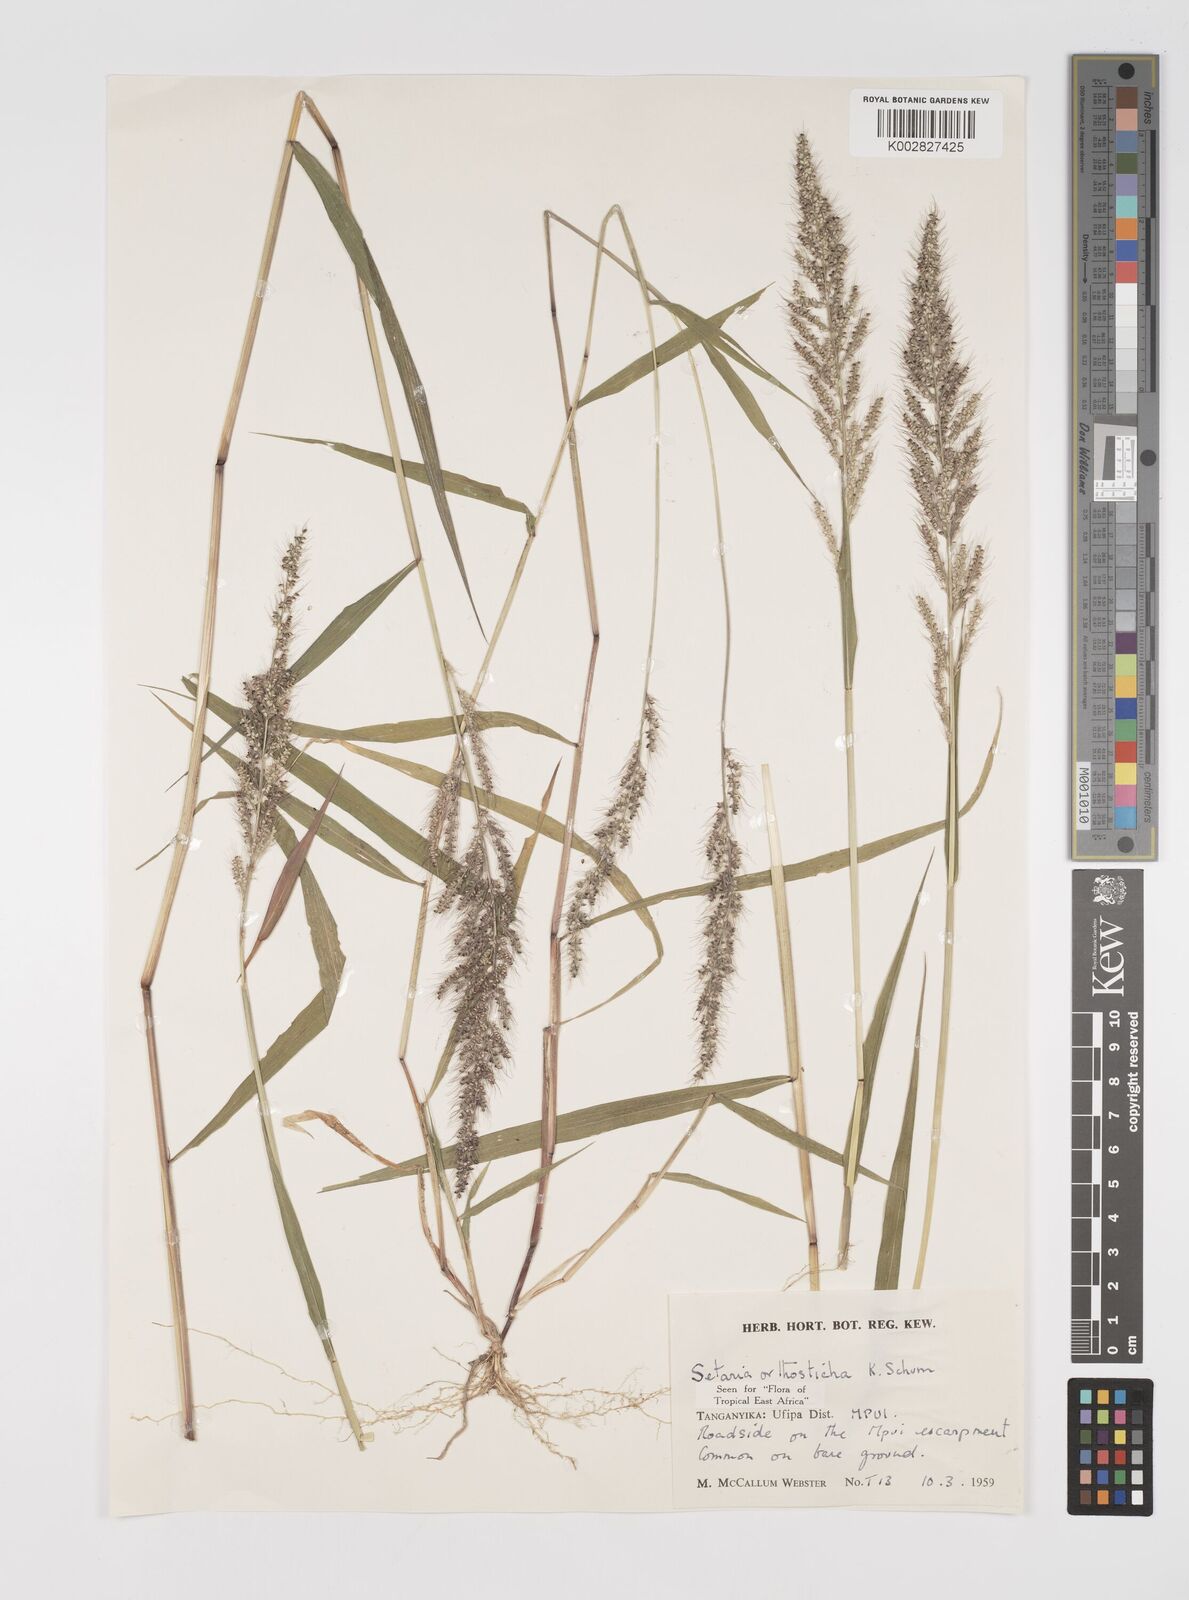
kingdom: Plantae
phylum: Tracheophyta
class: Liliopsida
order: Poales
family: Poaceae
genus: Setaria
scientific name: Setaria orthosticha
